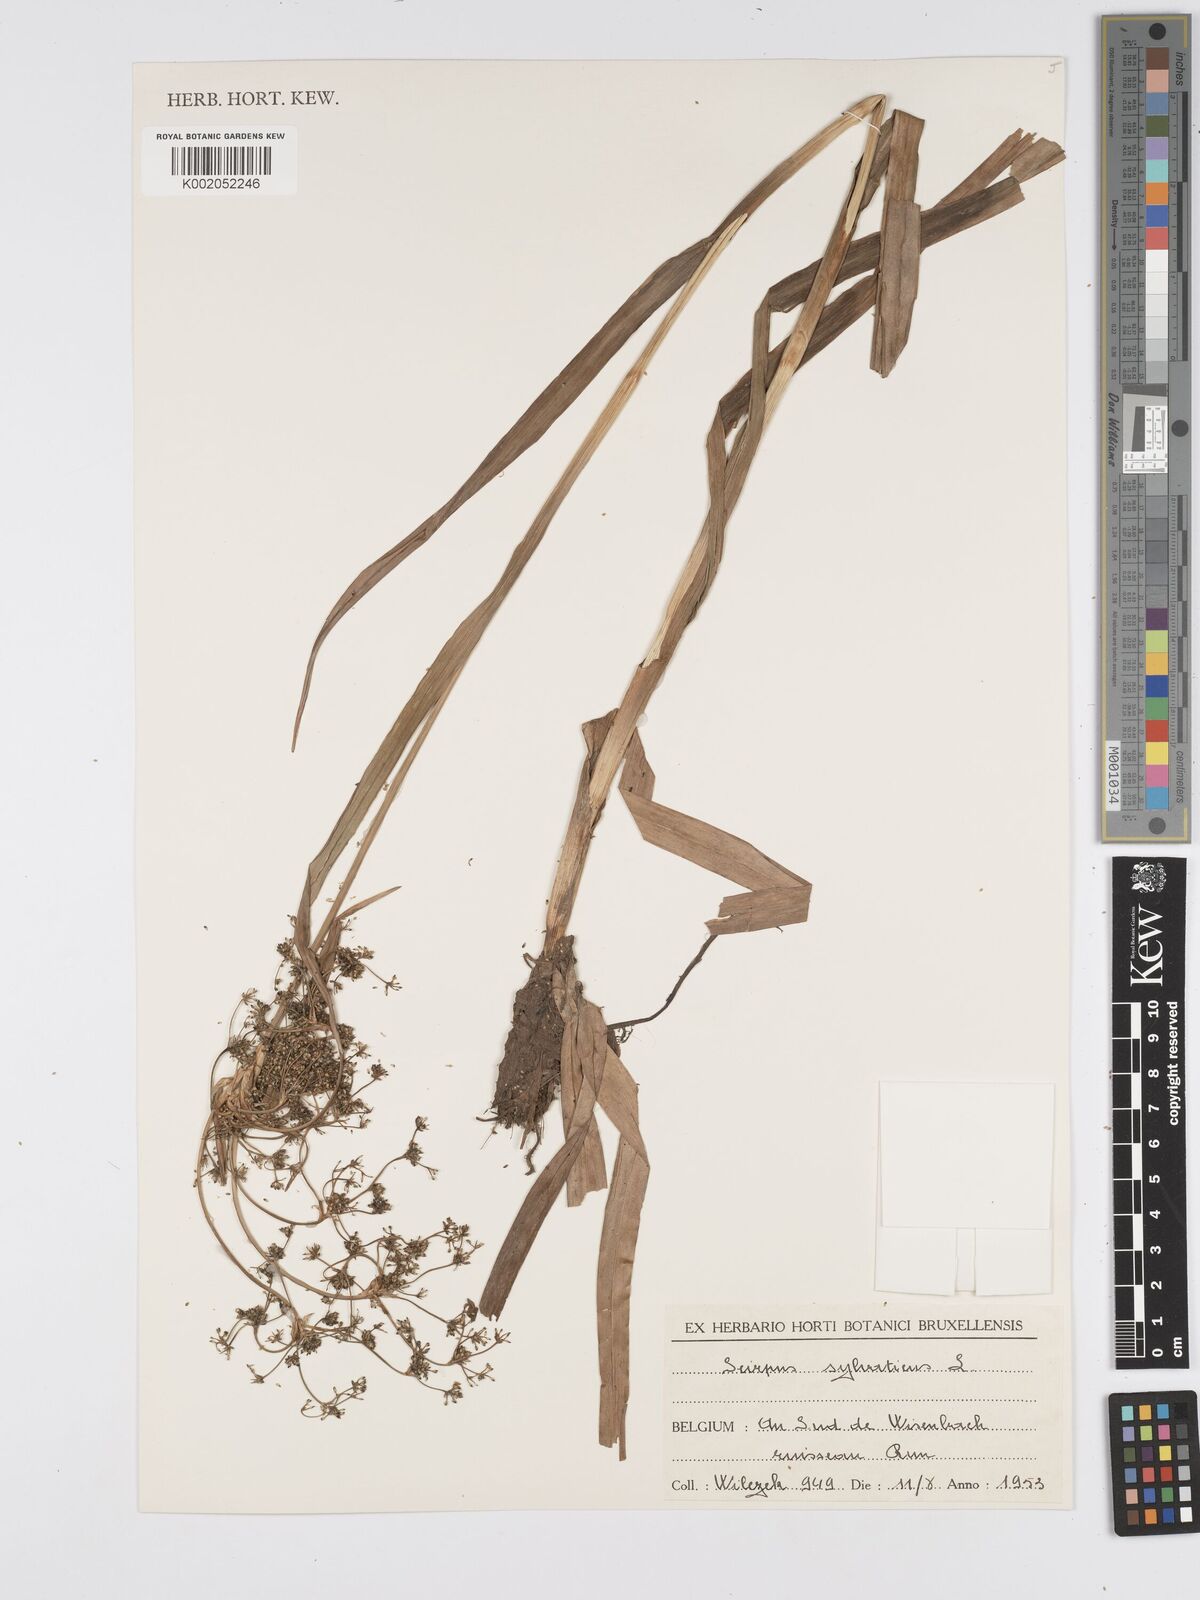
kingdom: Plantae
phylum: Tracheophyta
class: Liliopsida
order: Poales
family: Cyperaceae
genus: Scirpus
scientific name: Scirpus sylvaticus
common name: Wood club-rush
